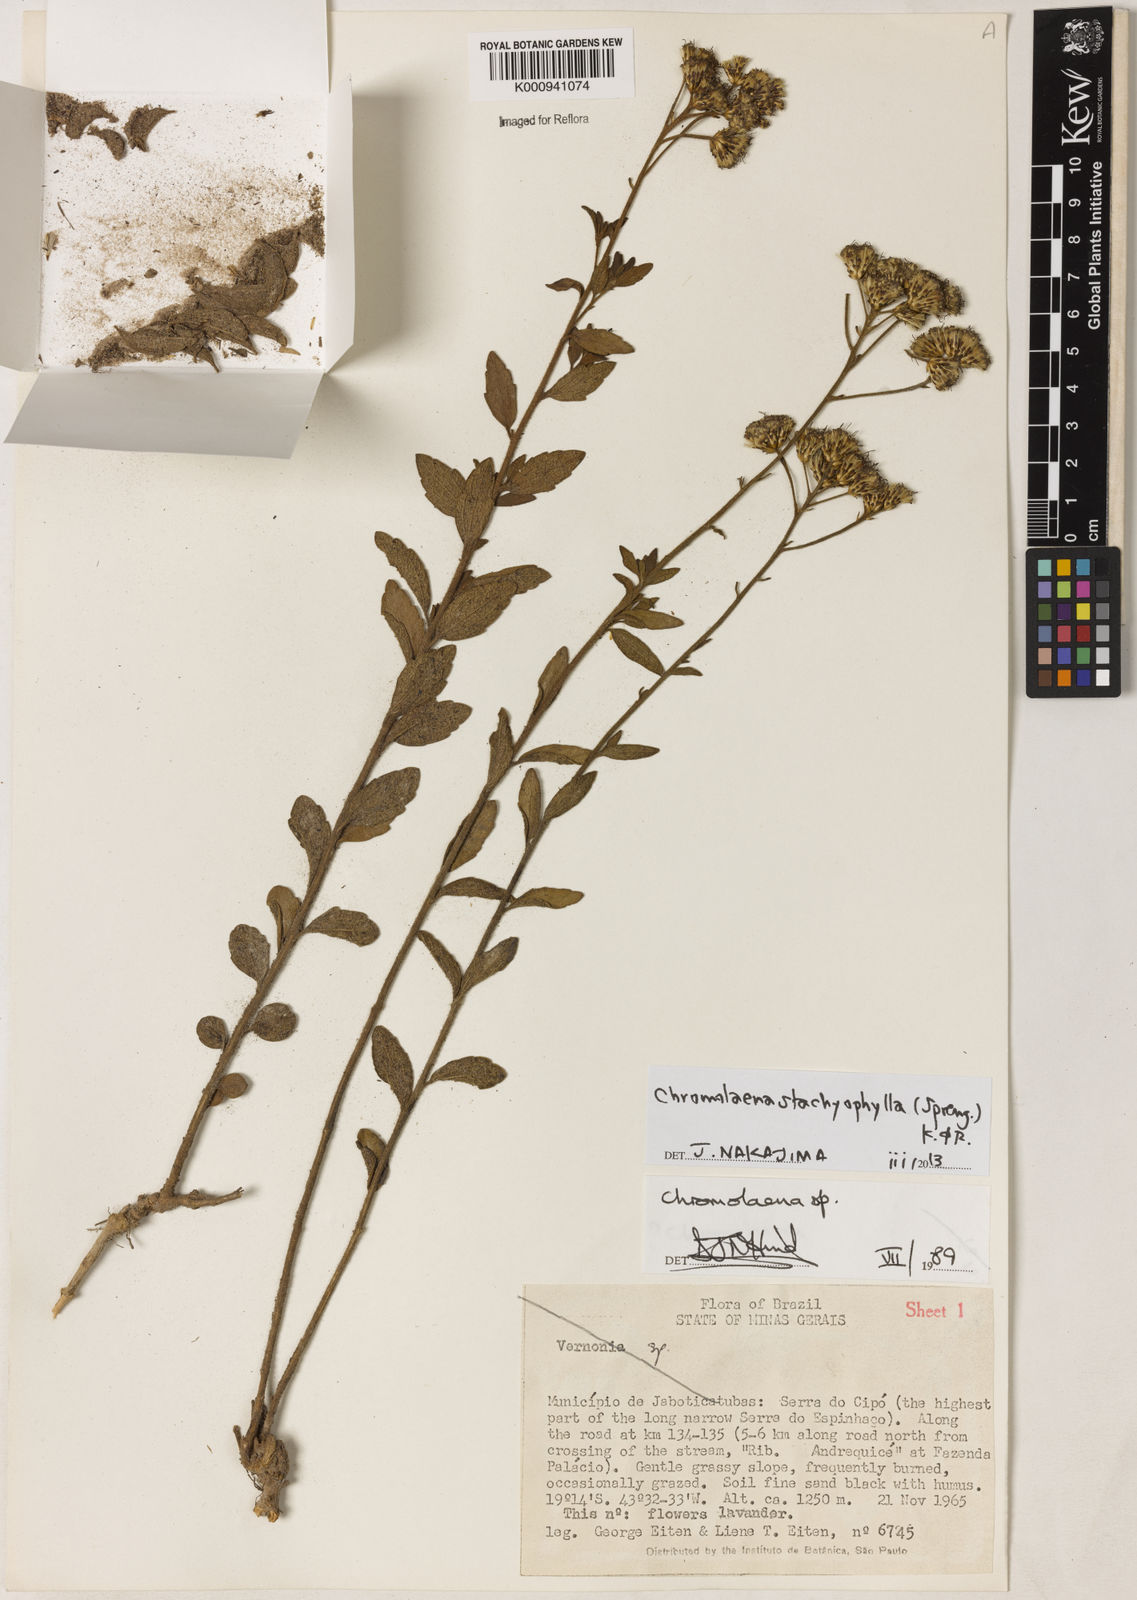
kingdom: Plantae
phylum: Tracheophyta
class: Magnoliopsida
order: Asterales
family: Asteraceae
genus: Chromolaena
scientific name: Chromolaena stachyophylla
